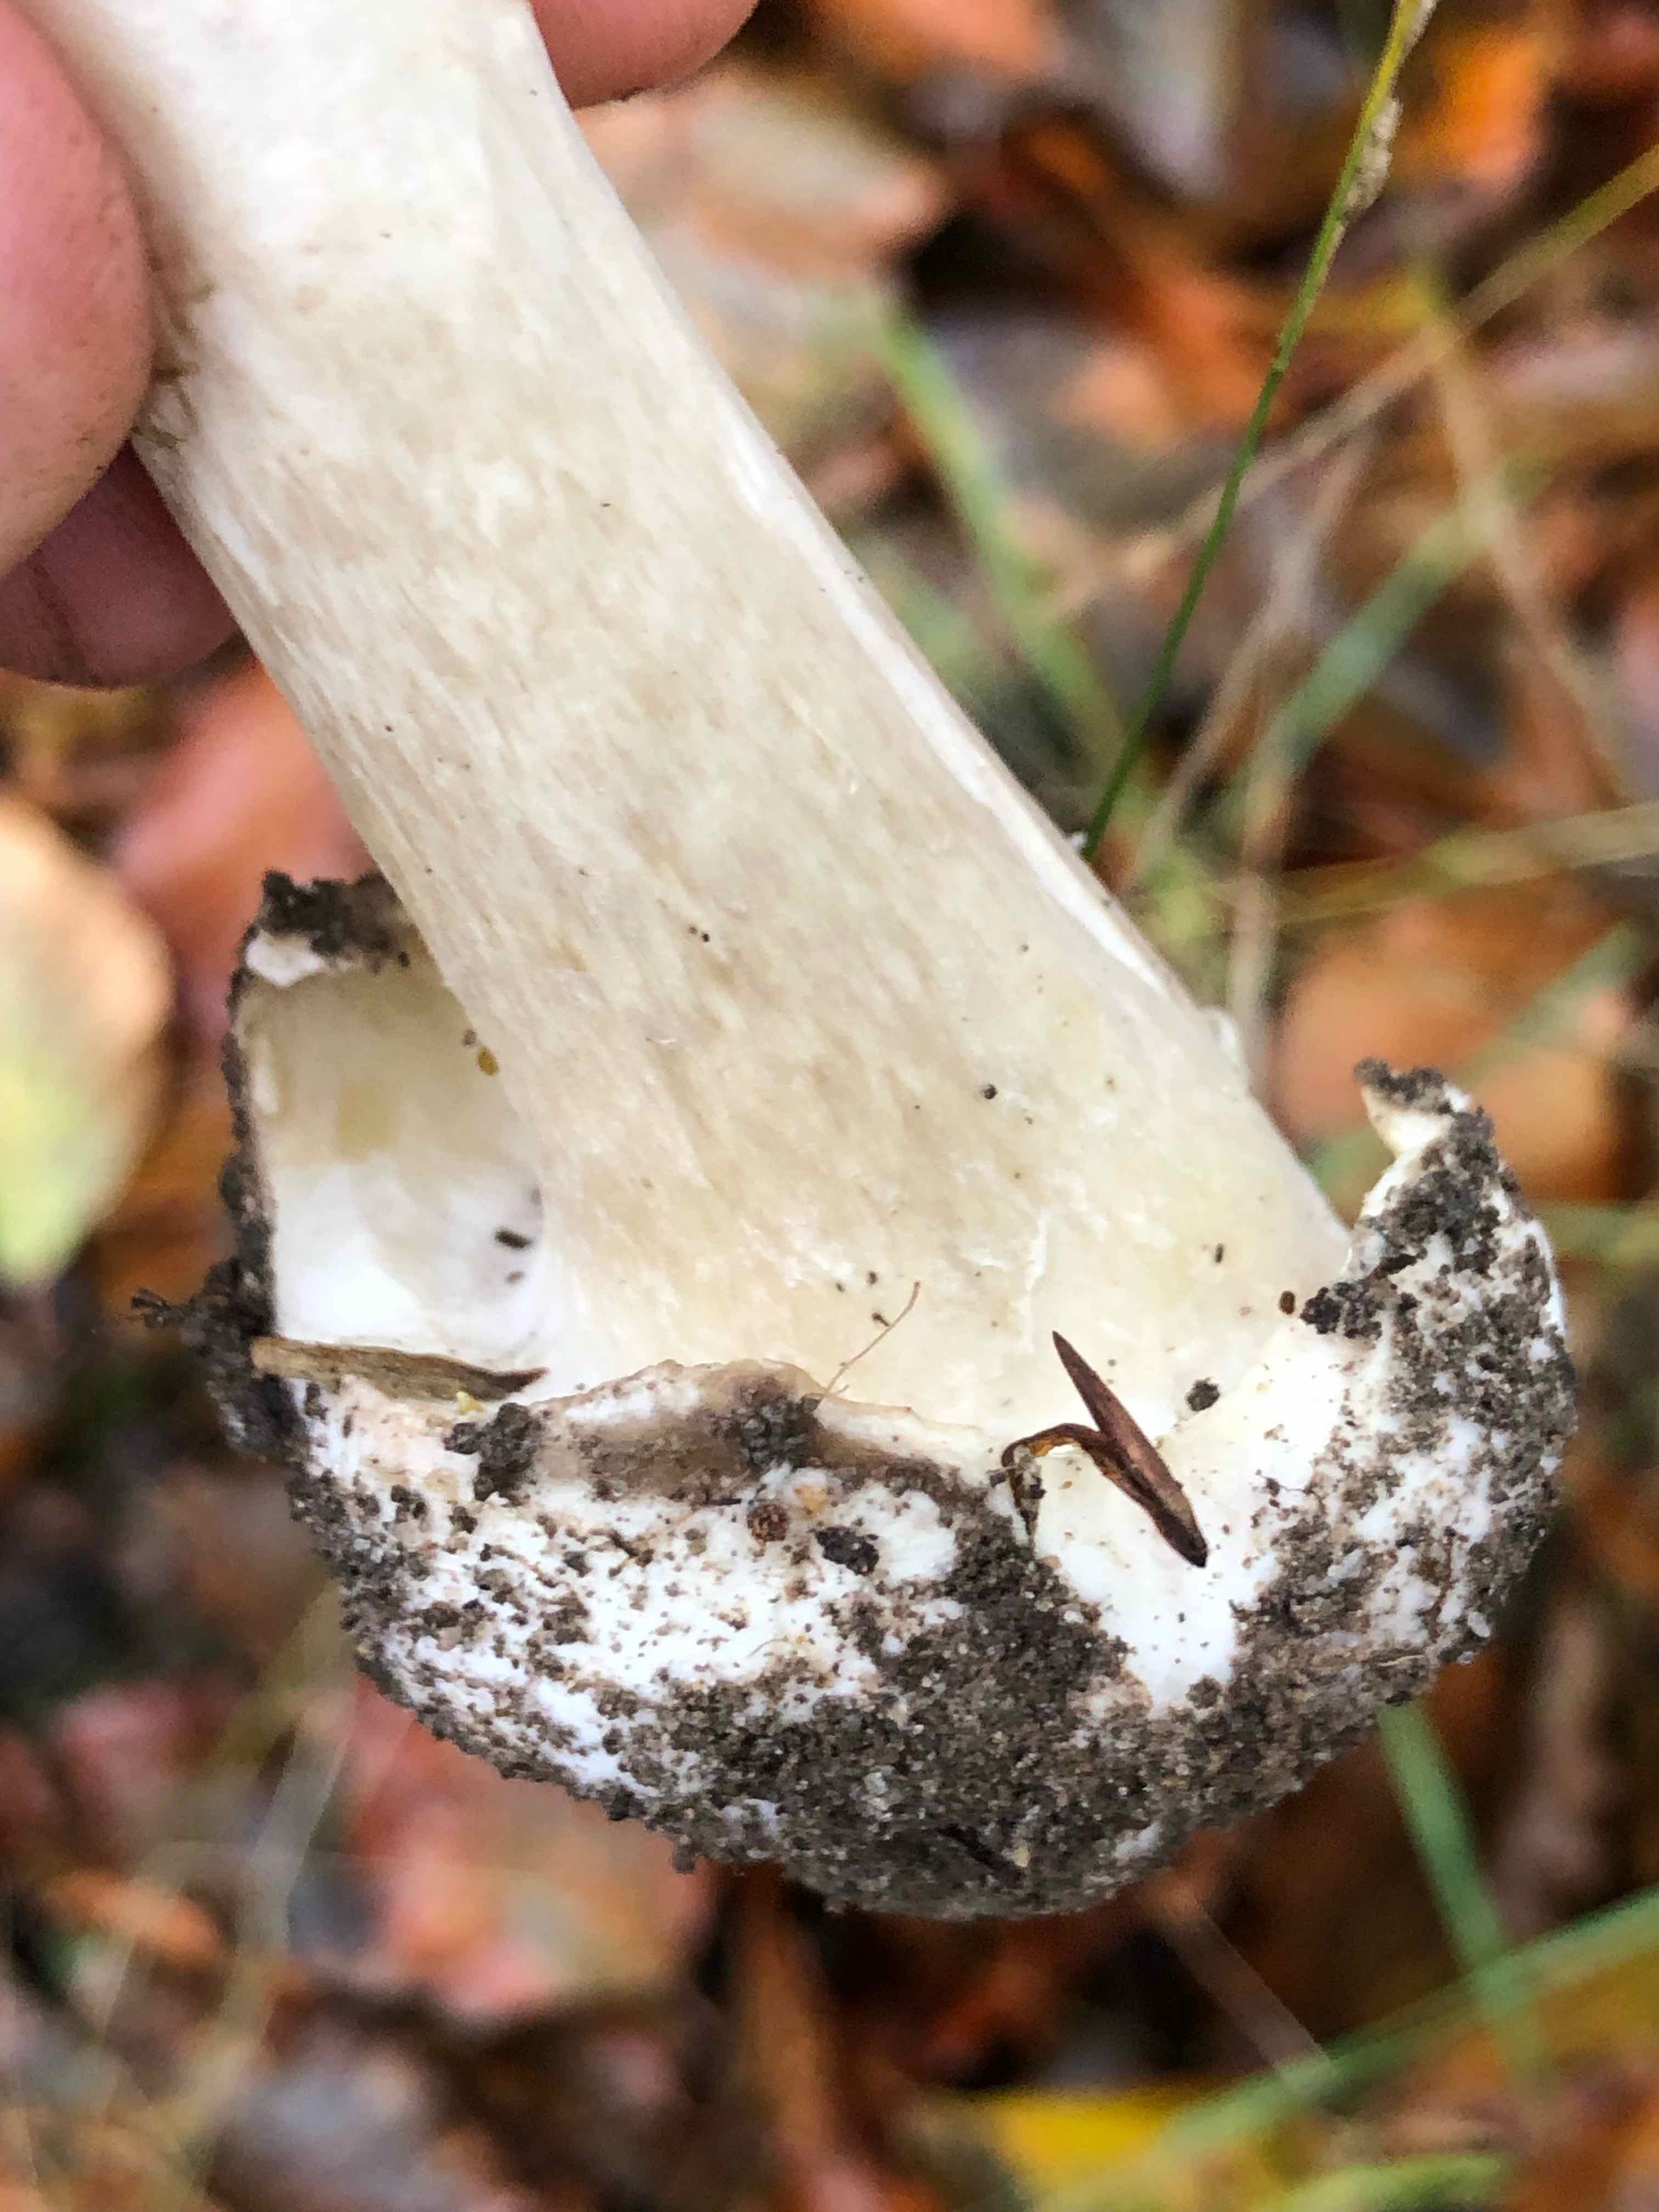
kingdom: Fungi
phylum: Basidiomycota
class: Agaricomycetes
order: Agaricales
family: Amanitaceae
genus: Amanita
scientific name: Amanita phalloides
